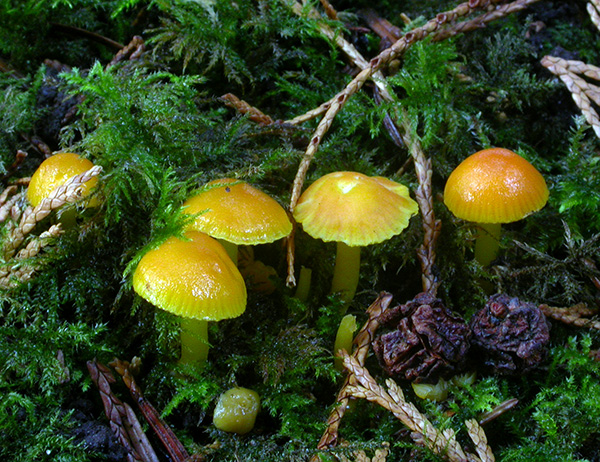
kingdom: Fungi
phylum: Basidiomycota
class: Agaricomycetes
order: Agaricales
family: Hygrophoraceae
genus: Hygrocybe
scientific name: Hygrocybe ceracea
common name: voksgul vokshat
